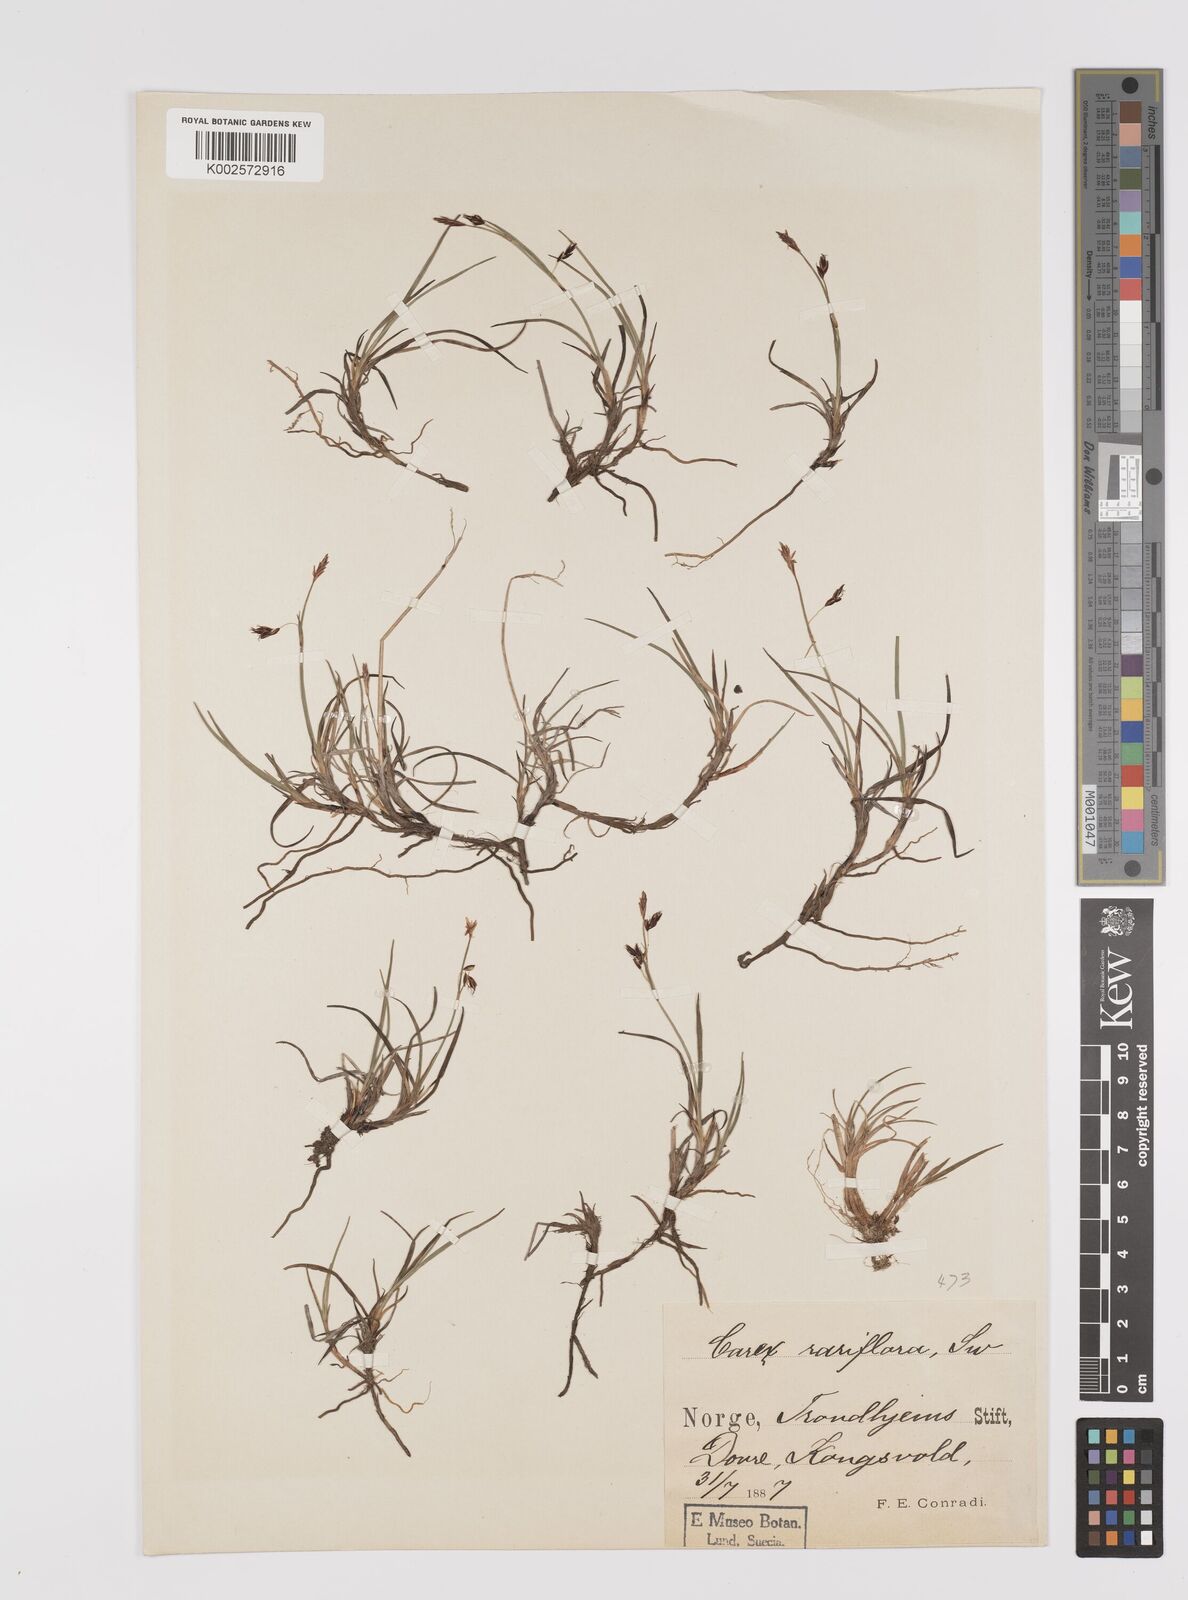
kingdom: Plantae
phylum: Tracheophyta
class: Liliopsida
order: Poales
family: Cyperaceae
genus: Carex
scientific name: Carex rariflora
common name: Loose-flowered alpine sedge
